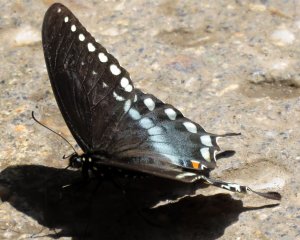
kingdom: Animalia
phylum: Arthropoda
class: Insecta
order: Lepidoptera
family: Papilionidae
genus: Pterourus
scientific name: Pterourus troilus
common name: Spicebush Swallowtail
